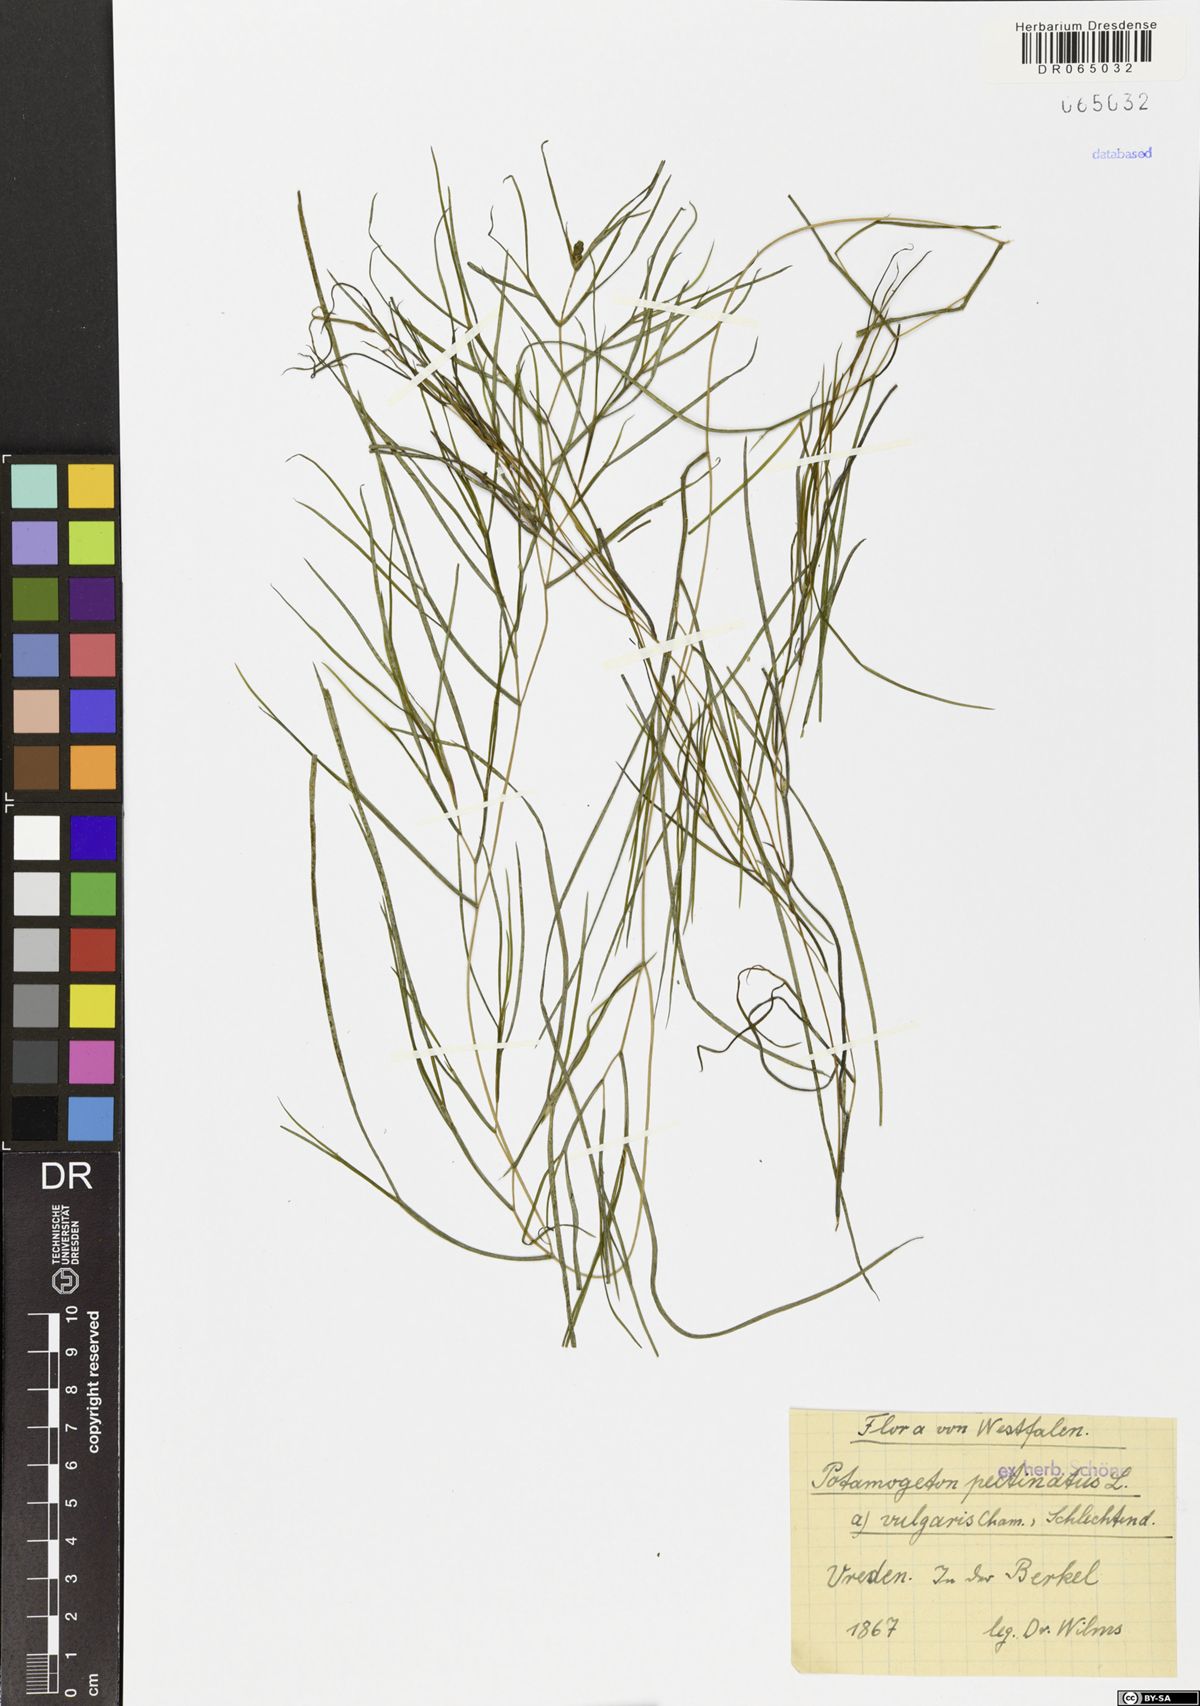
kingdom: Plantae
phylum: Tracheophyta
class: Liliopsida
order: Alismatales
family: Potamogetonaceae
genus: Stuckenia
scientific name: Stuckenia pectinata
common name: Sago pondweed
